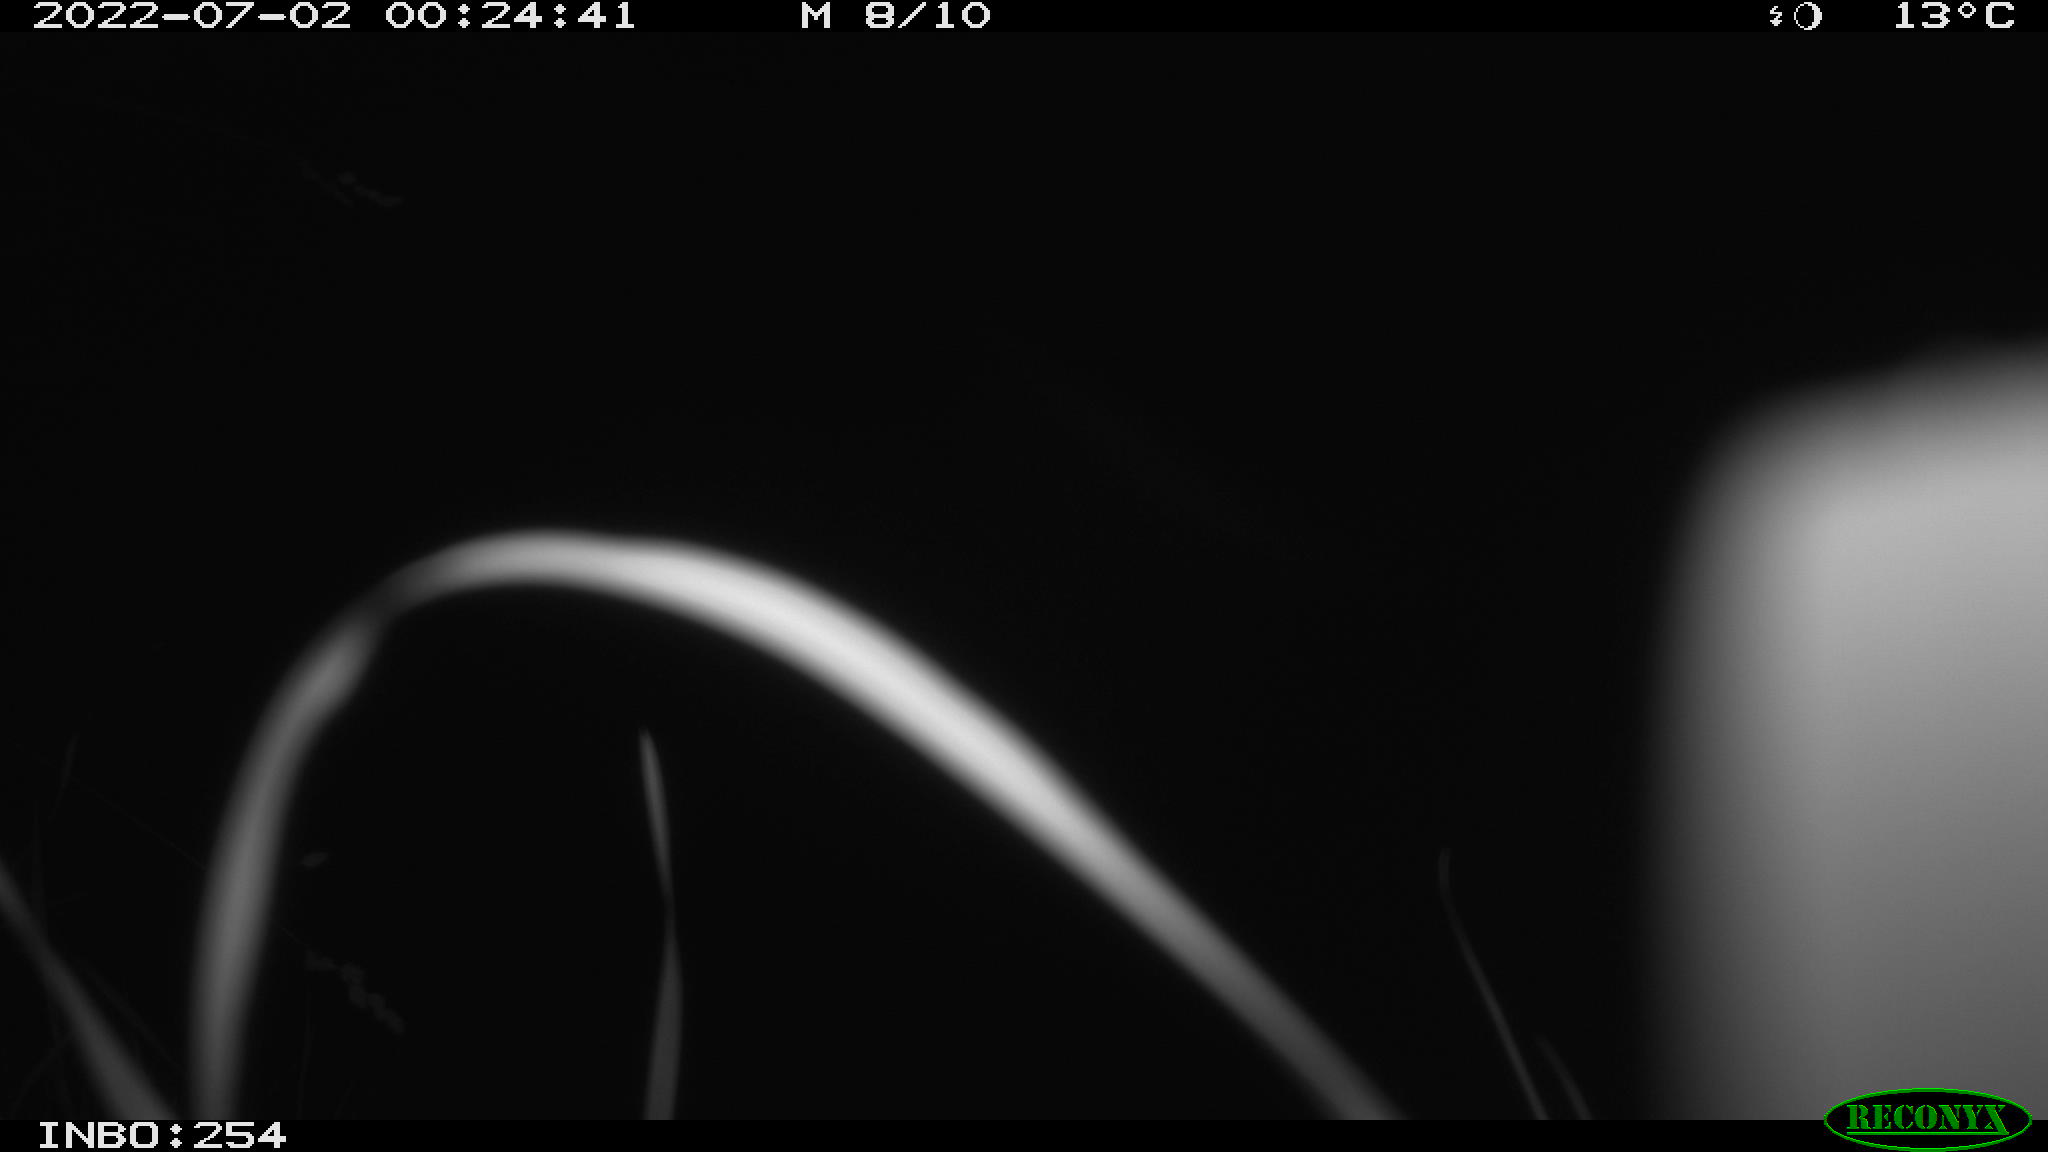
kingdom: Animalia
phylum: Chordata
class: Mammalia
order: Rodentia
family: Muridae
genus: Rattus
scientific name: Rattus norvegicus
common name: Brown rat
